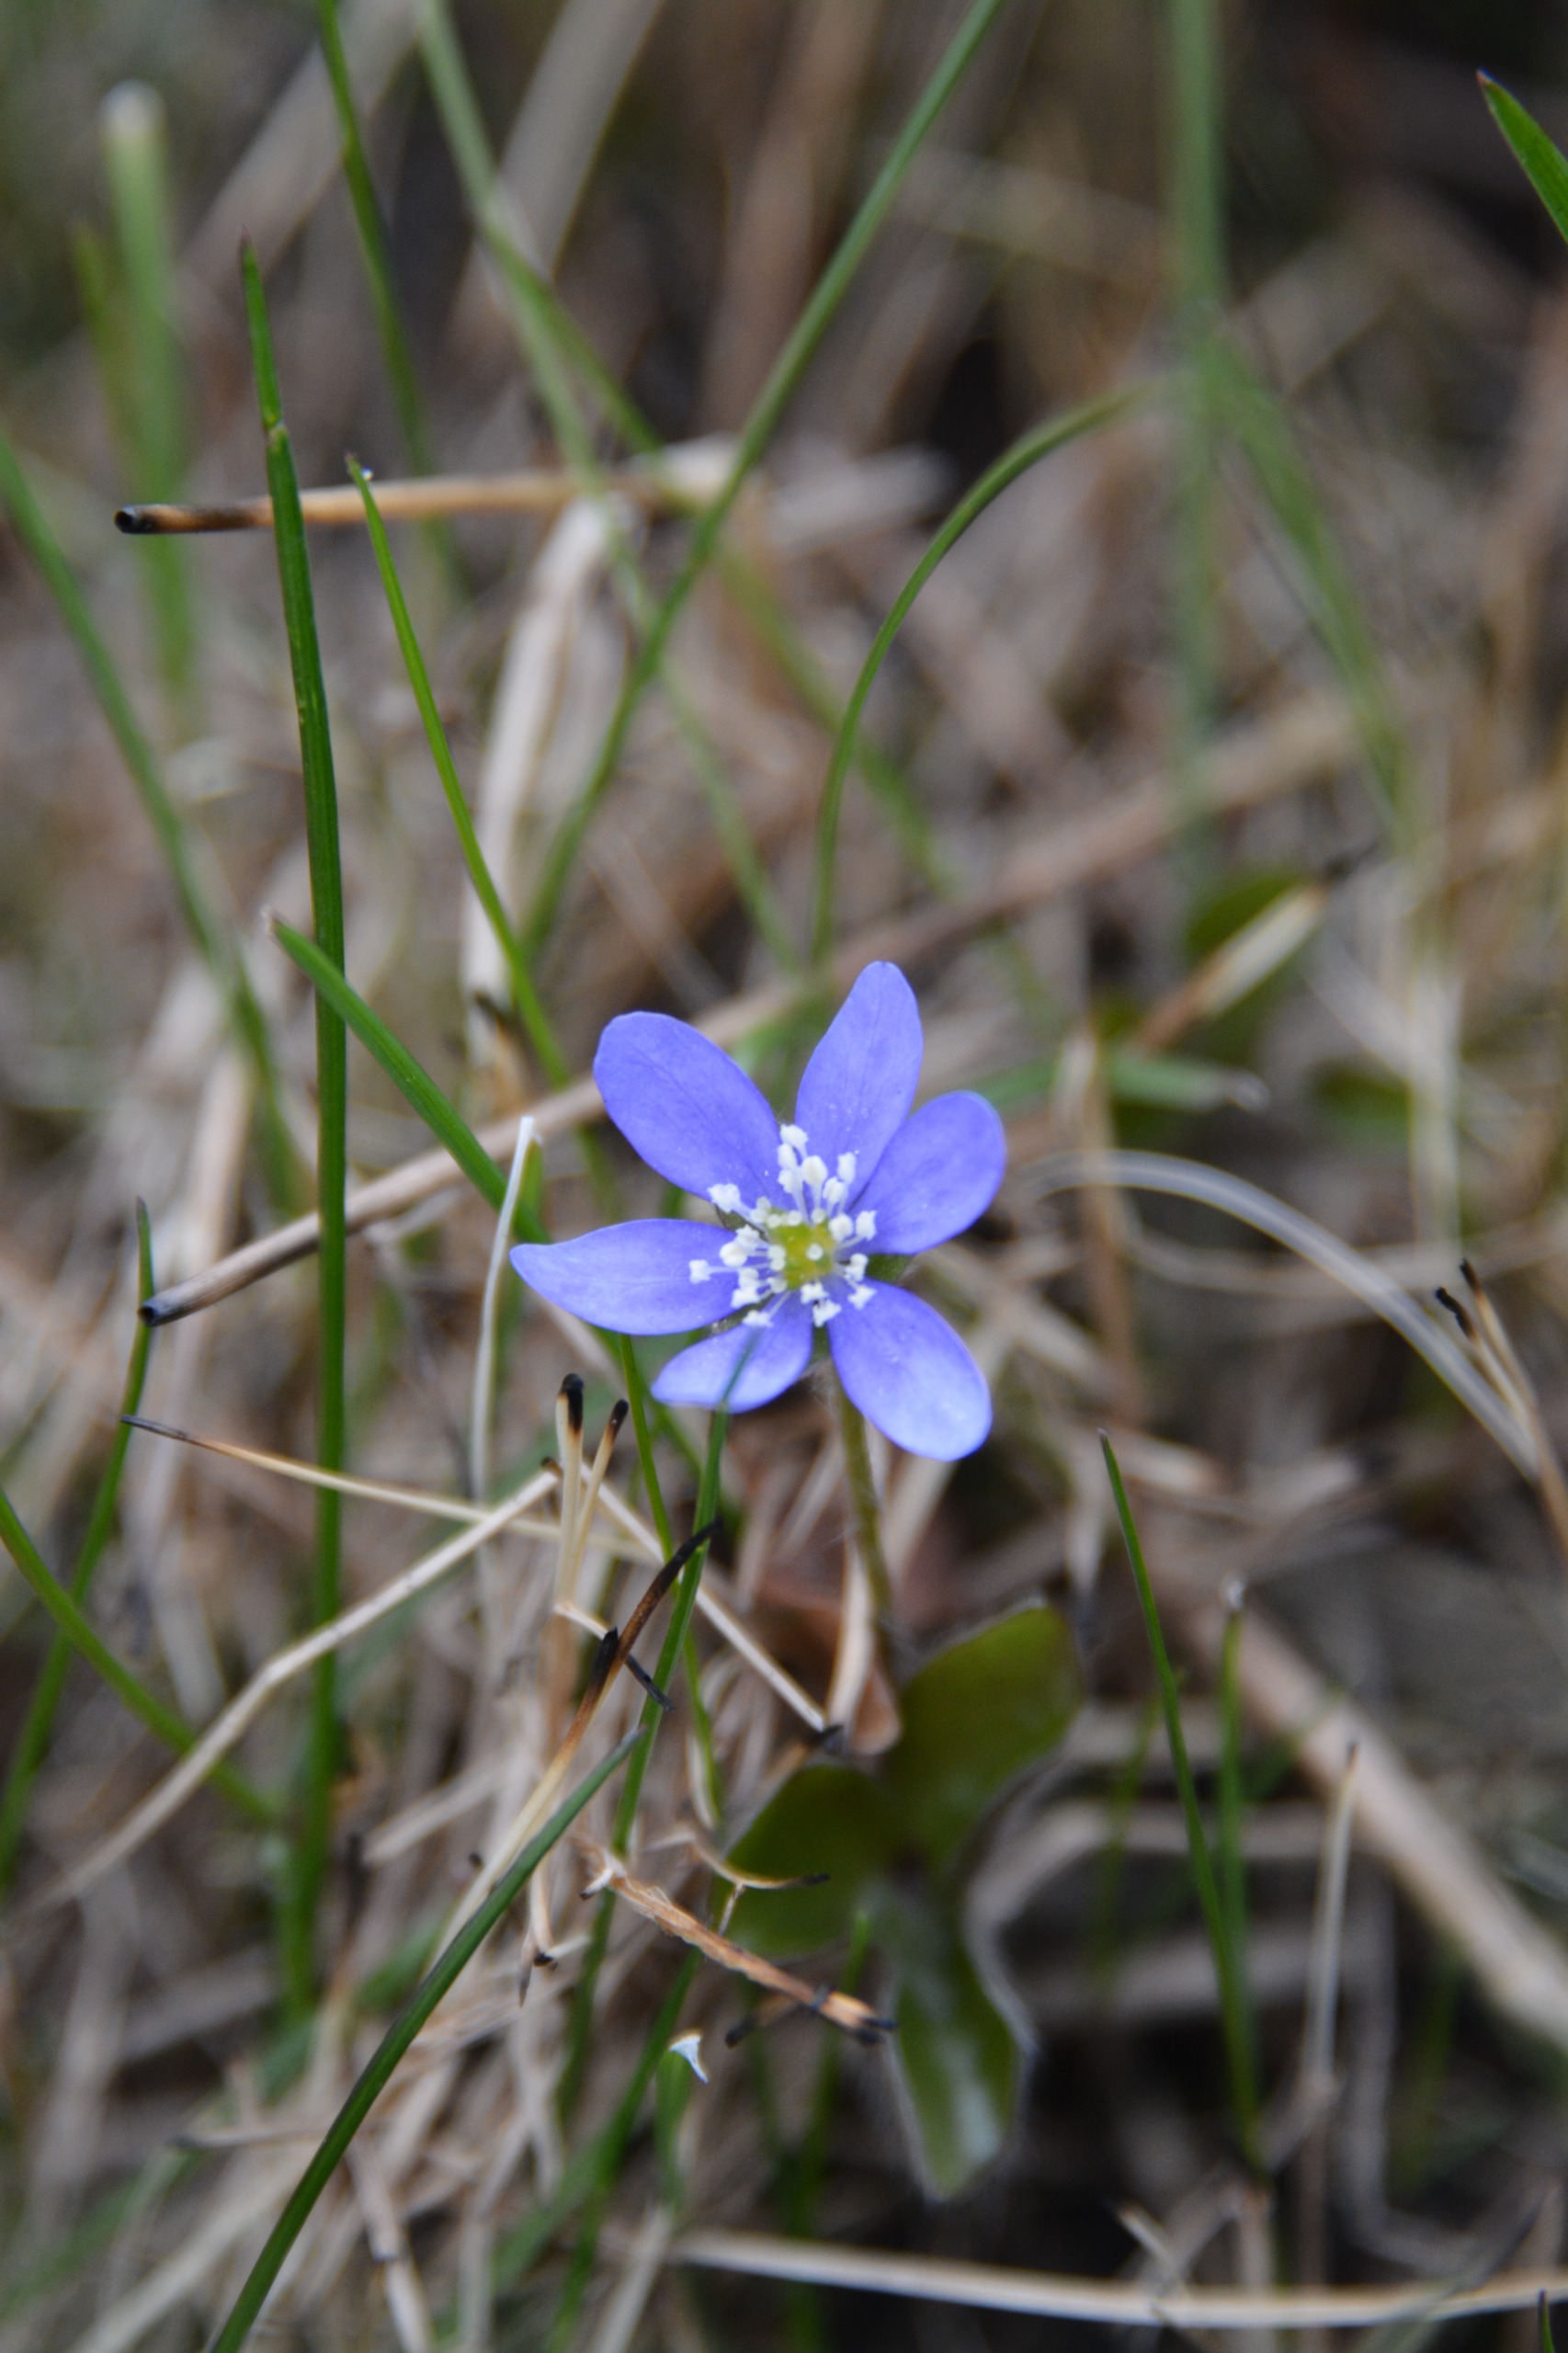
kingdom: Plantae
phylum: Tracheophyta
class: Magnoliopsida
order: Ranunculales
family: Ranunculaceae
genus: Hepatica
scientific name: Hepatica nobilis
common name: Blå anemone
